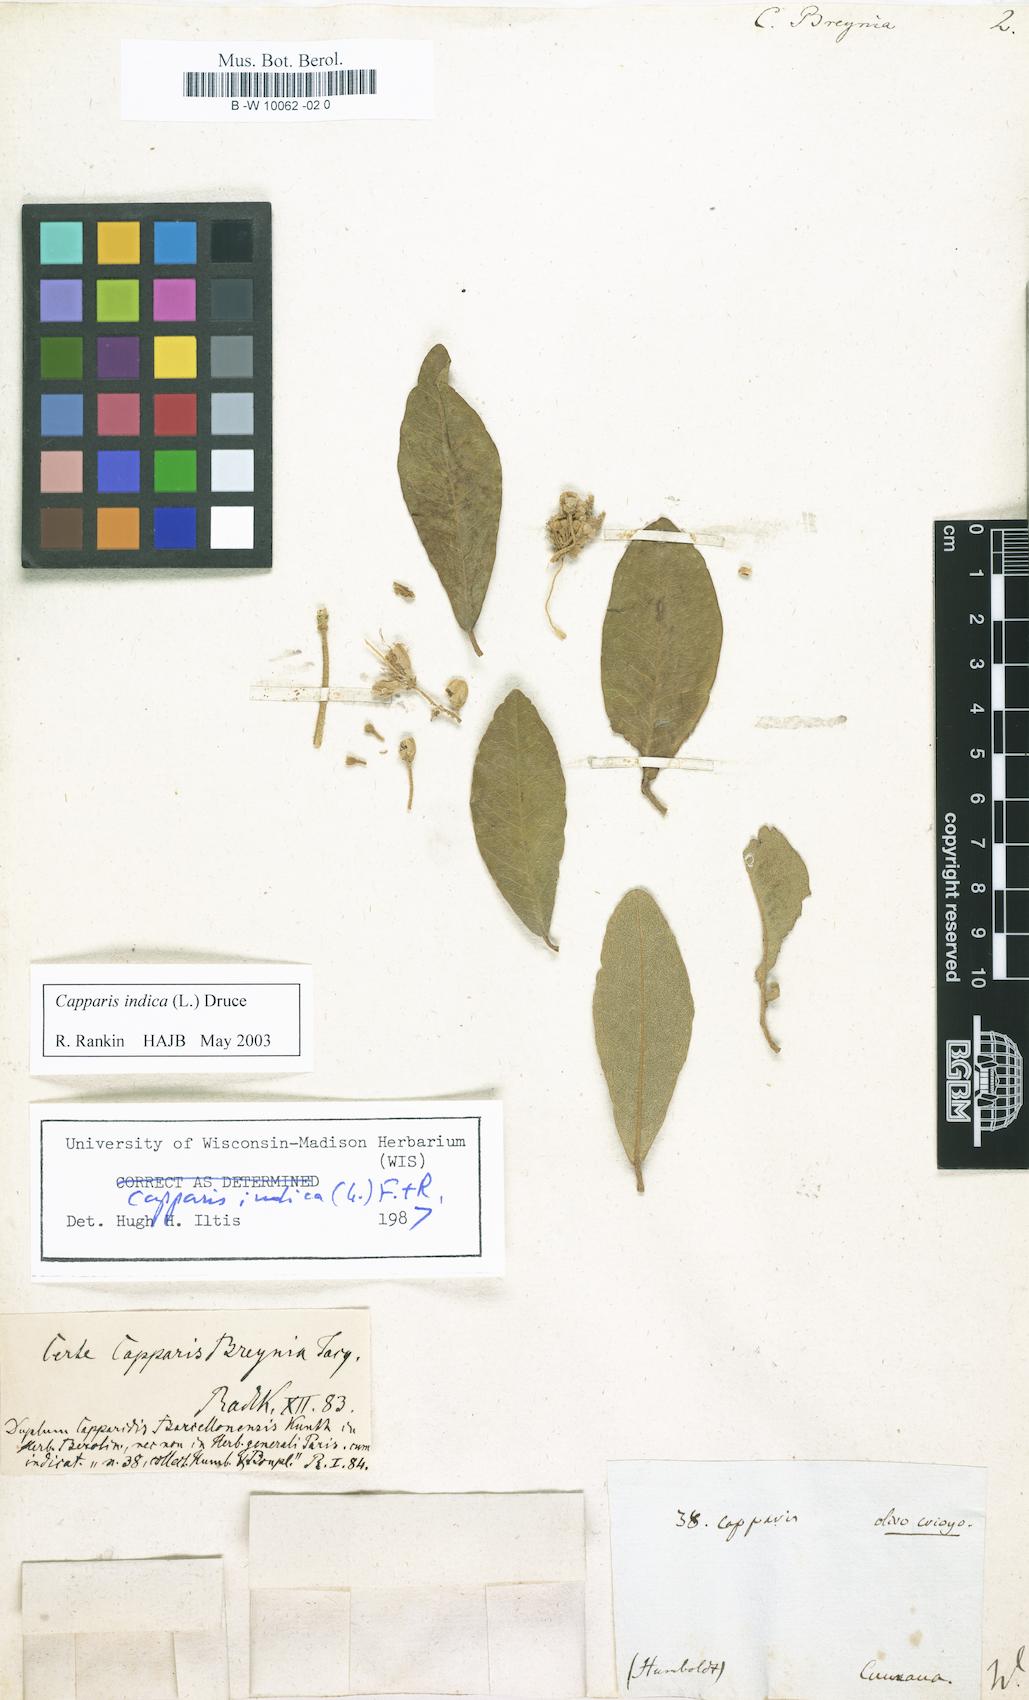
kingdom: Plantae
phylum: Tracheophyta
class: Magnoliopsida
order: Brassicales
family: Capparaceae
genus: Quadrella
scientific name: Quadrella odoratissima
